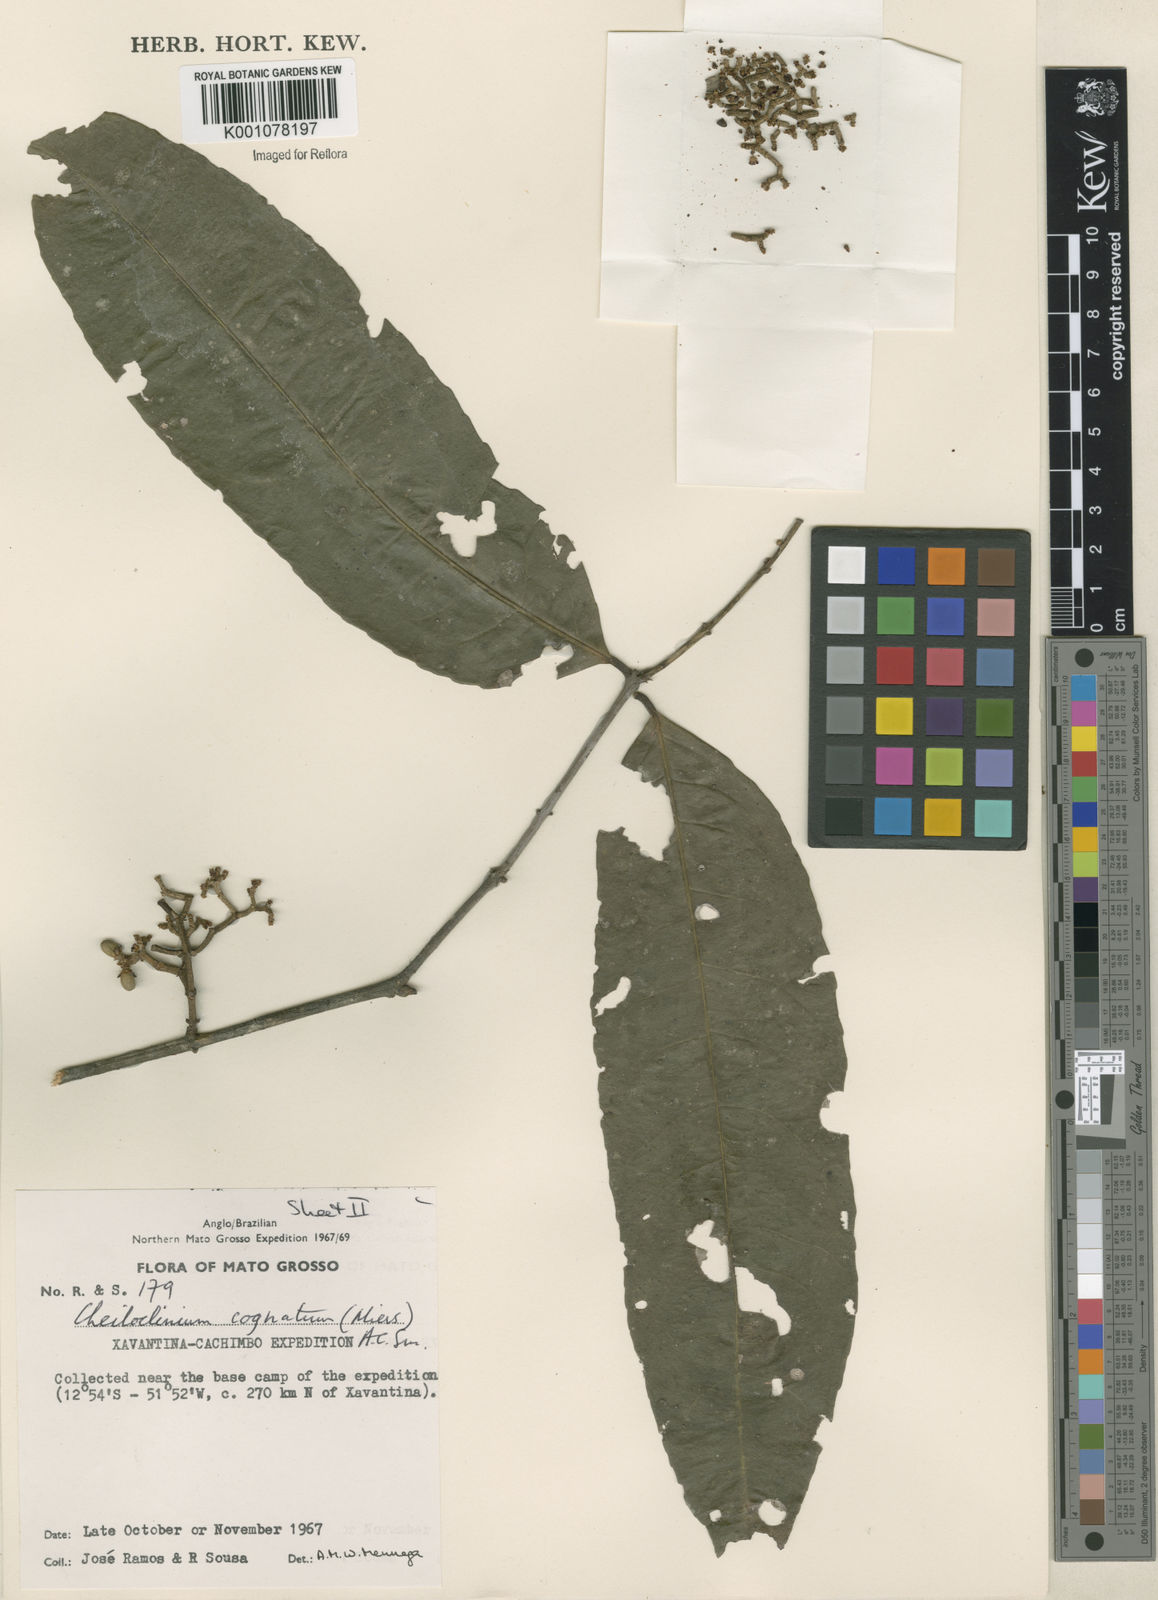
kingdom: Plantae
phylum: Tracheophyta
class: Magnoliopsida
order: Celastrales
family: Celastraceae
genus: Cheiloclinium
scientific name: Cheiloclinium cognatum
